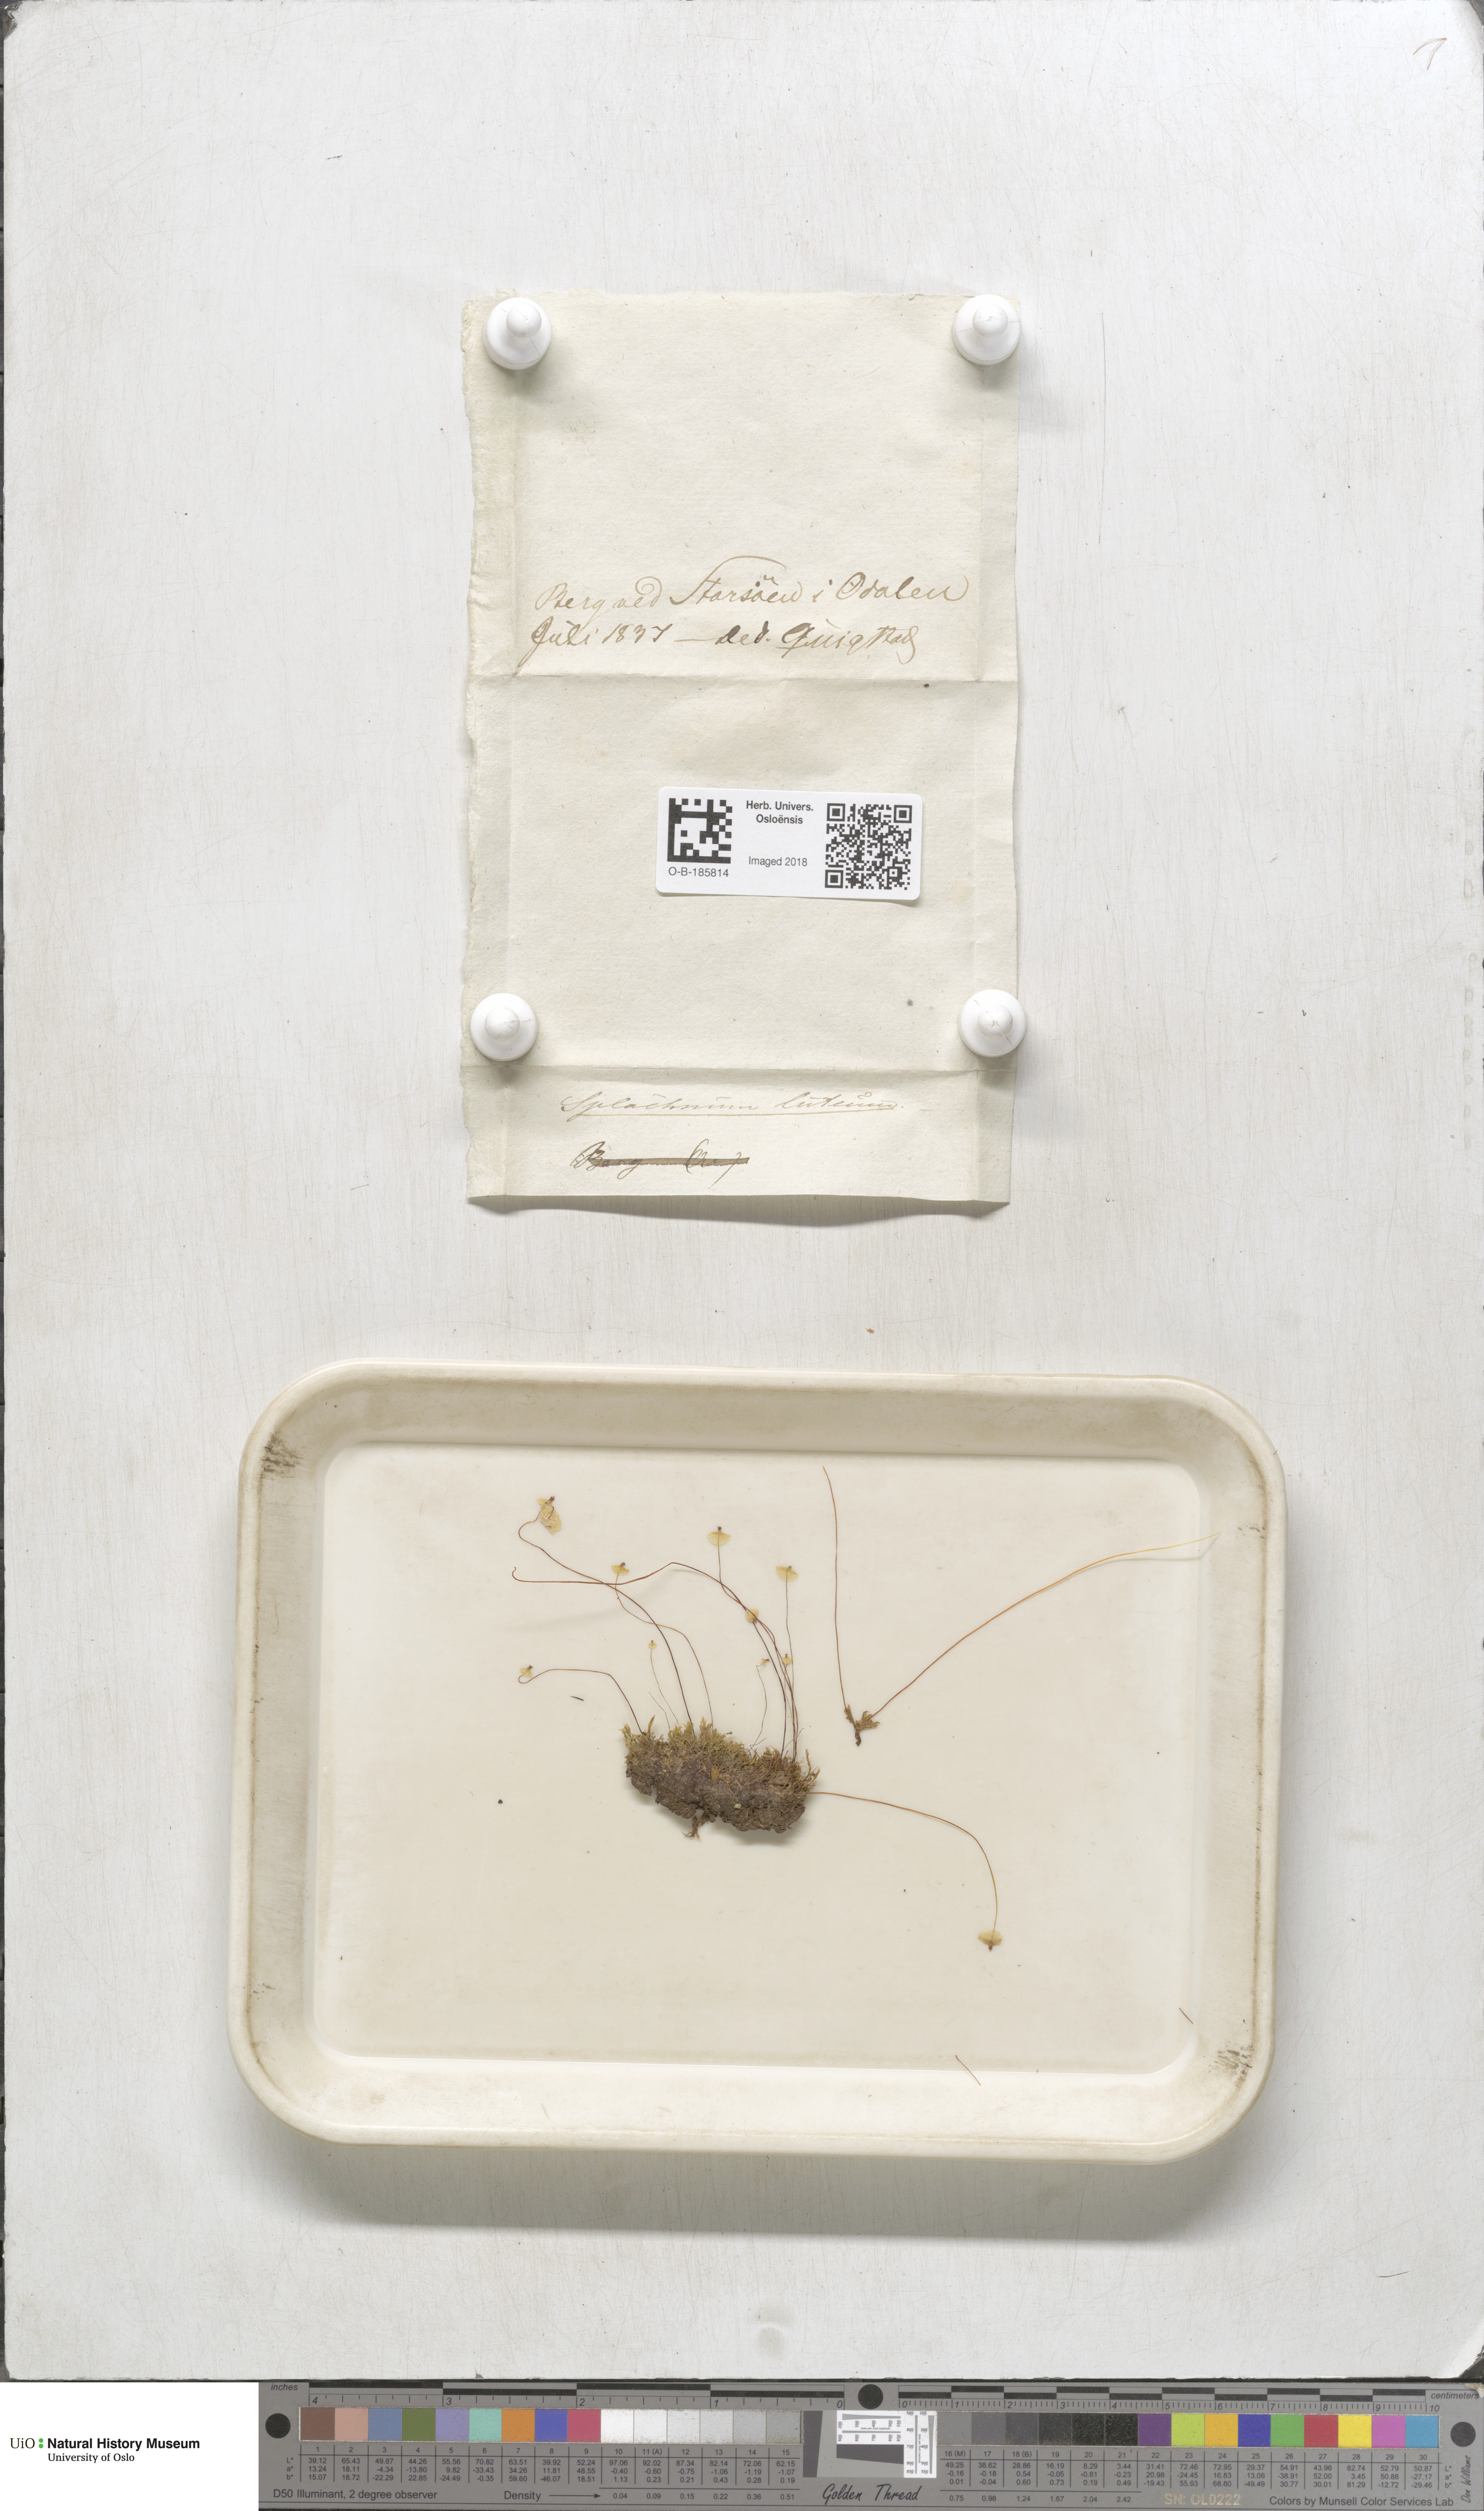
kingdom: Plantae
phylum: Bryophyta
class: Bryopsida
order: Splachnales
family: Splachnaceae
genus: Splachnum
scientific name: Splachnum luteum
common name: Yellow dung moss
